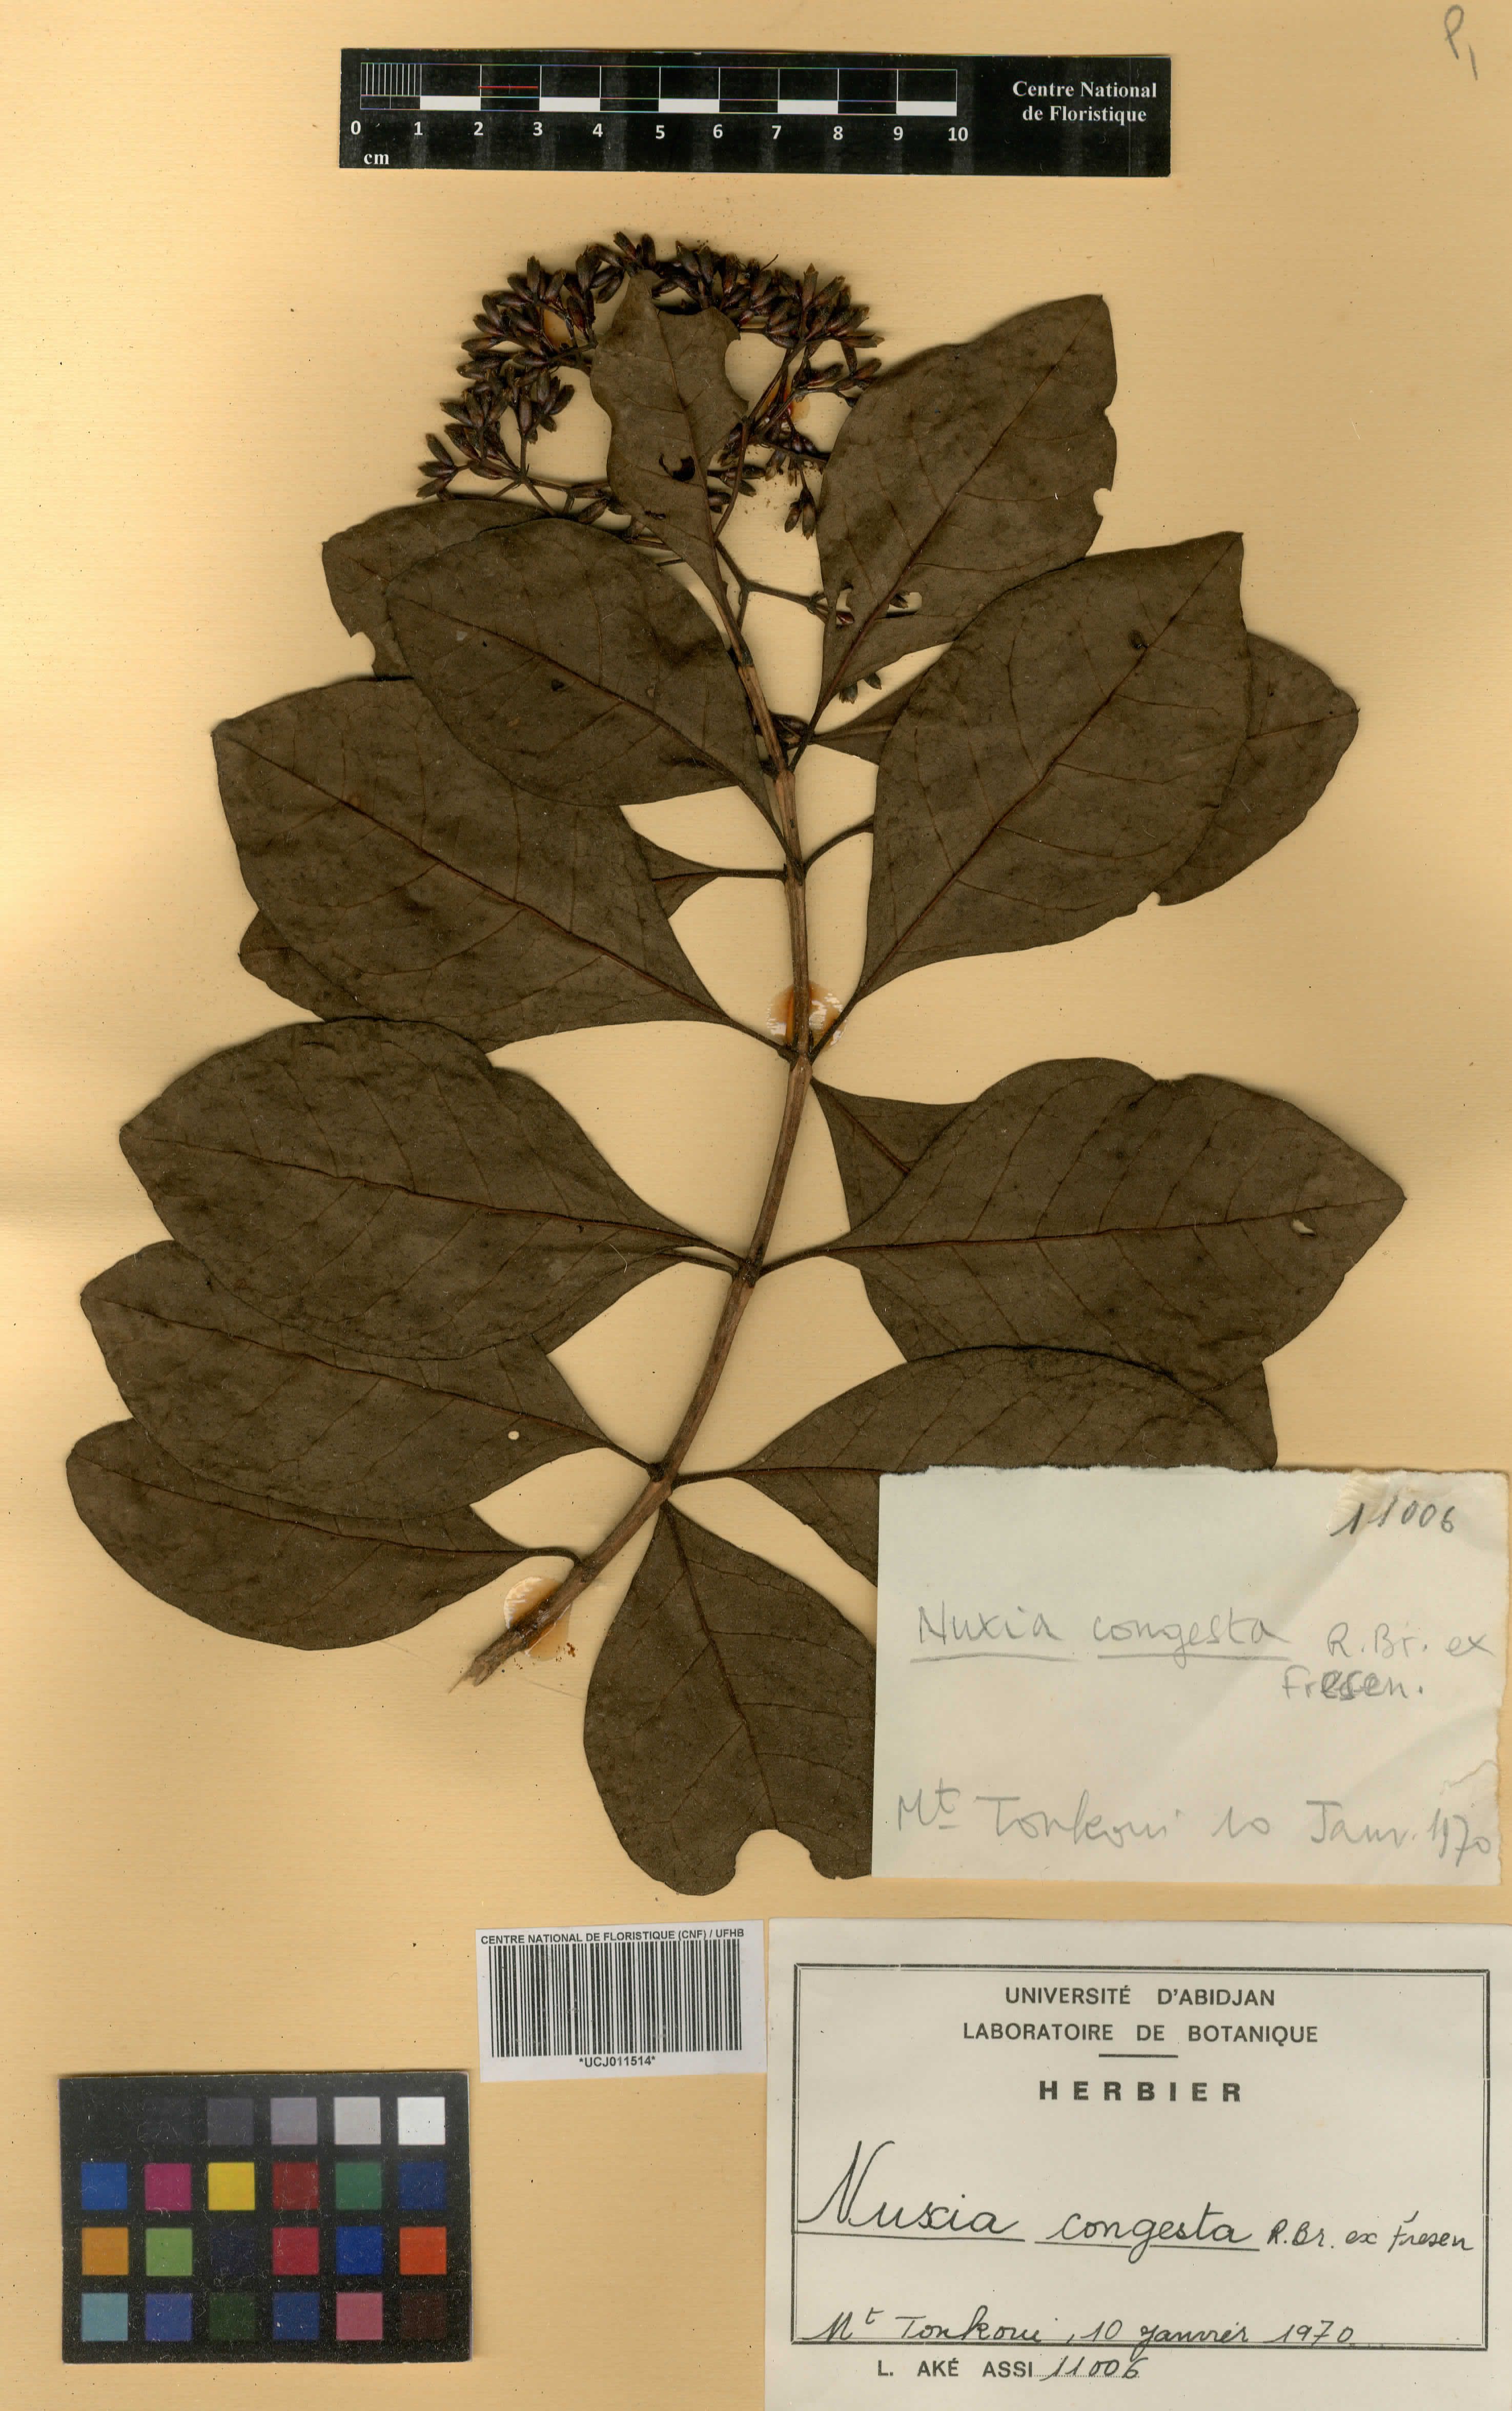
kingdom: Plantae
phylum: Tracheophyta
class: Magnoliopsida
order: Lamiales
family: Stilbaceae
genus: Nuxia
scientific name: Nuxia congesta
